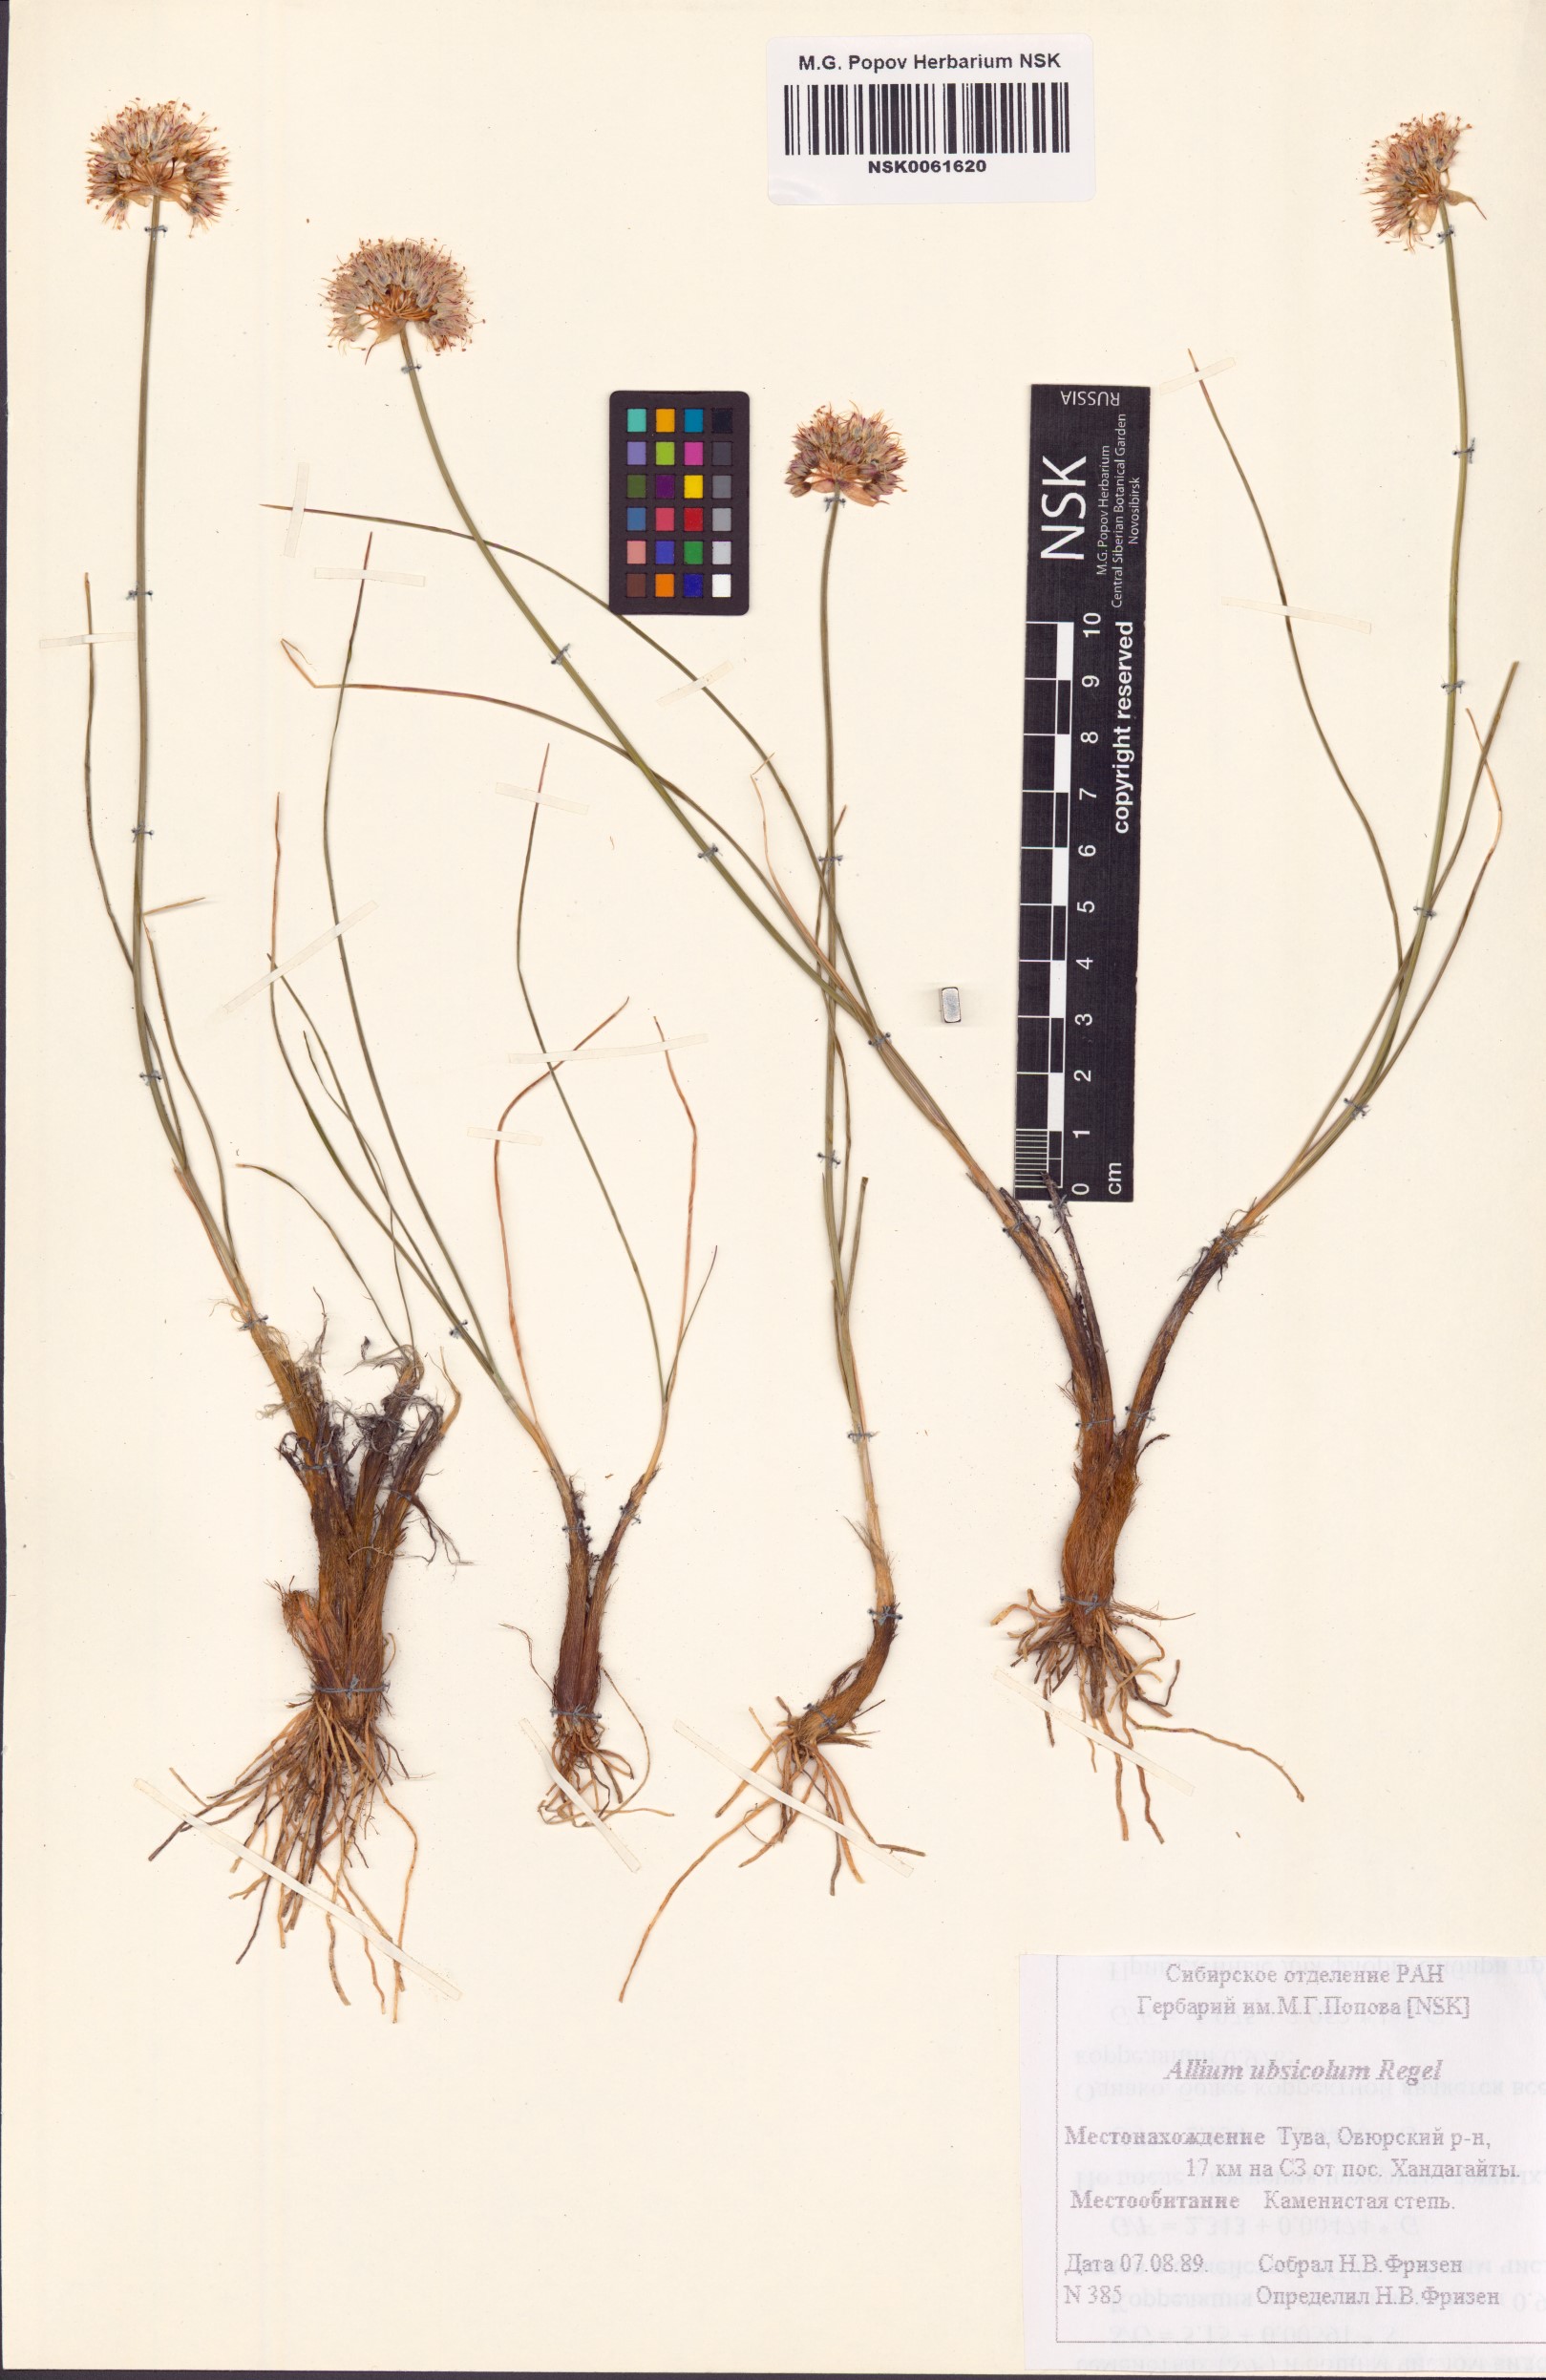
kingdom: Plantae
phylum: Tracheophyta
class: Liliopsida
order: Asparagales
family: Amaryllidaceae
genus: Allium
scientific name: Allium ubsicola
